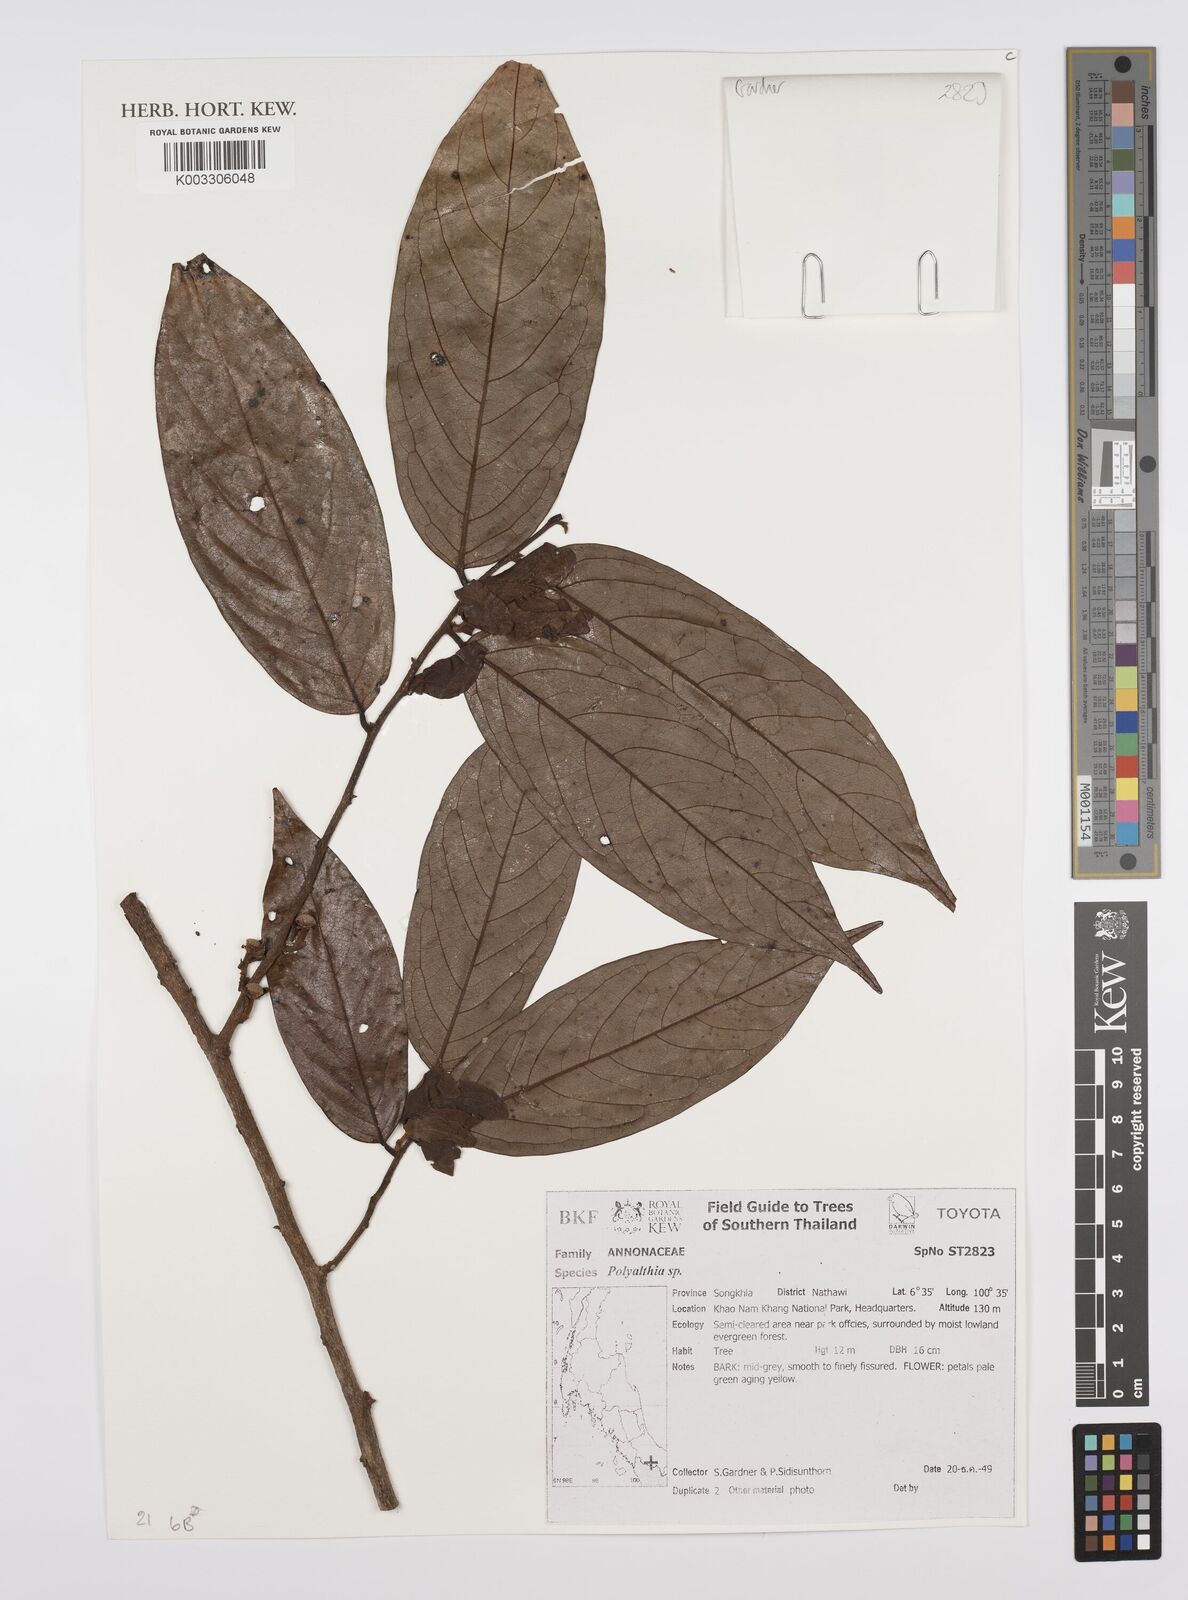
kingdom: Plantae
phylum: Tracheophyta
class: Magnoliopsida
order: Magnoliales
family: Annonaceae
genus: Huberantha
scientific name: Huberantha
